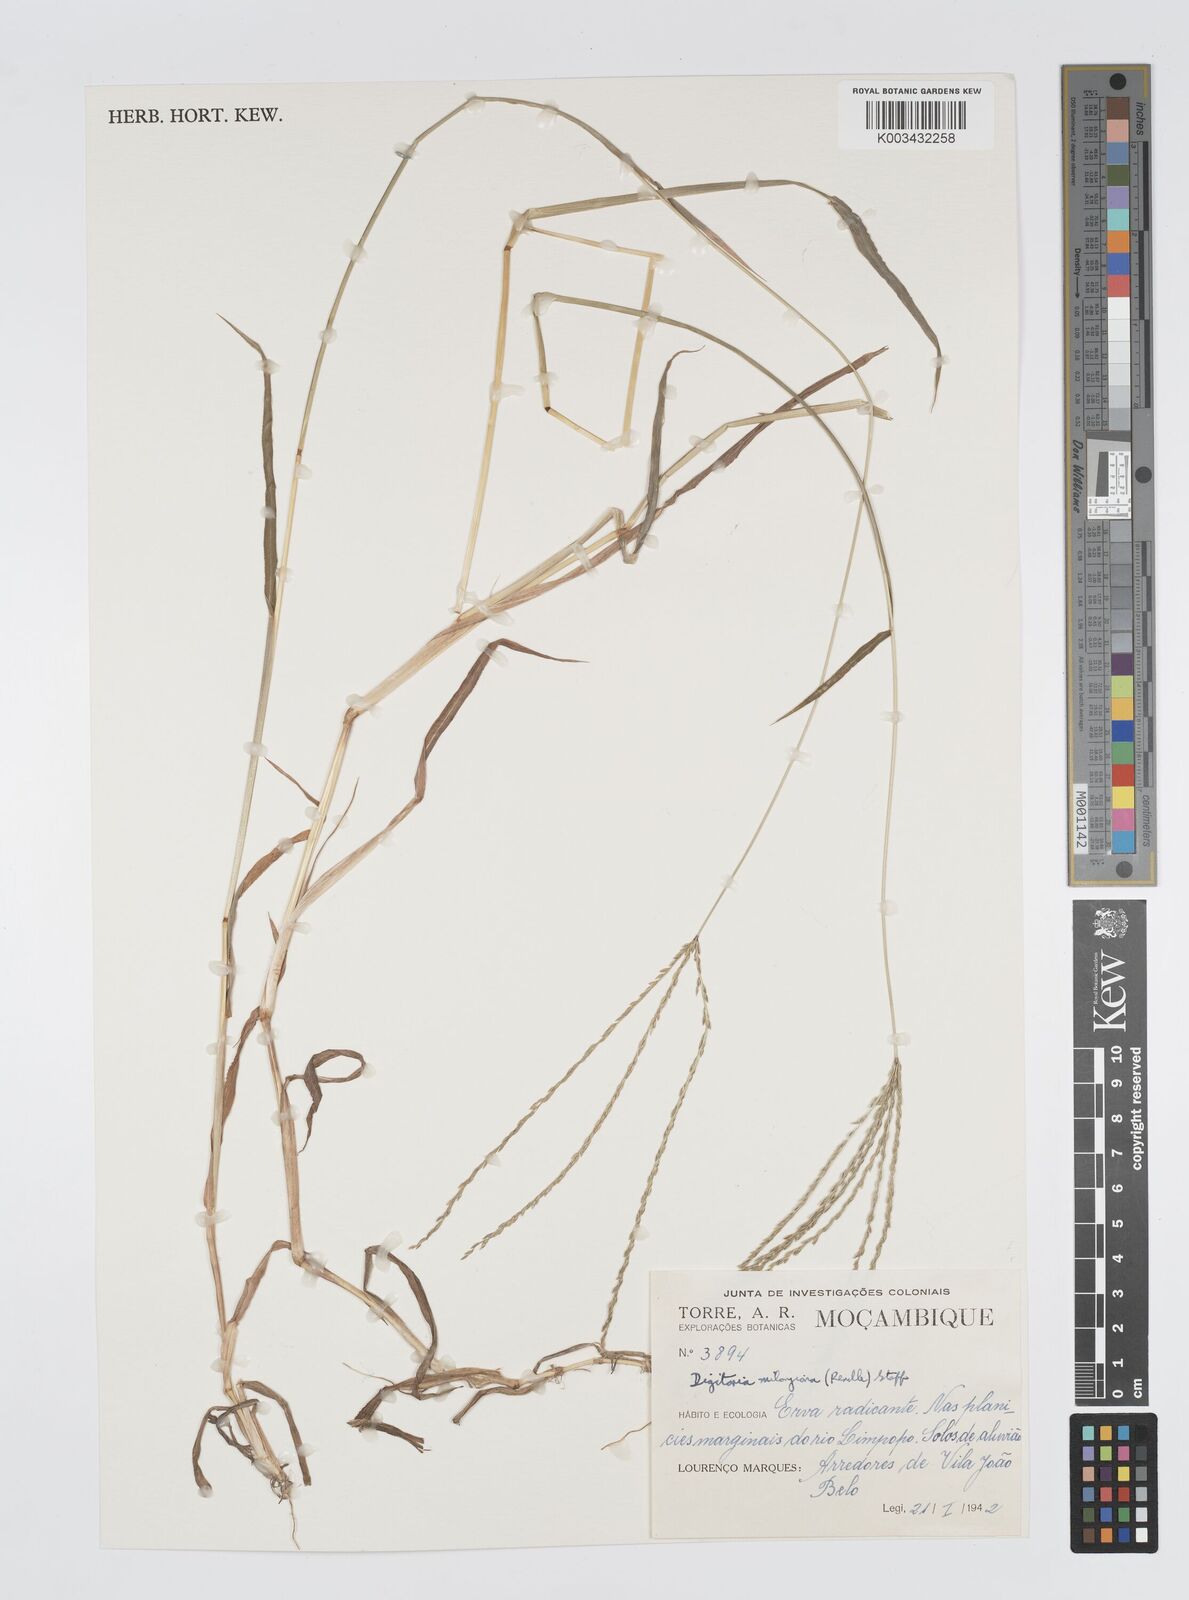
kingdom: Plantae
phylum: Tracheophyta
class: Liliopsida
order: Poales
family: Poaceae
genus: Digitaria
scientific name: Digitaria milanjiana
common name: Madagascar crabgrass
